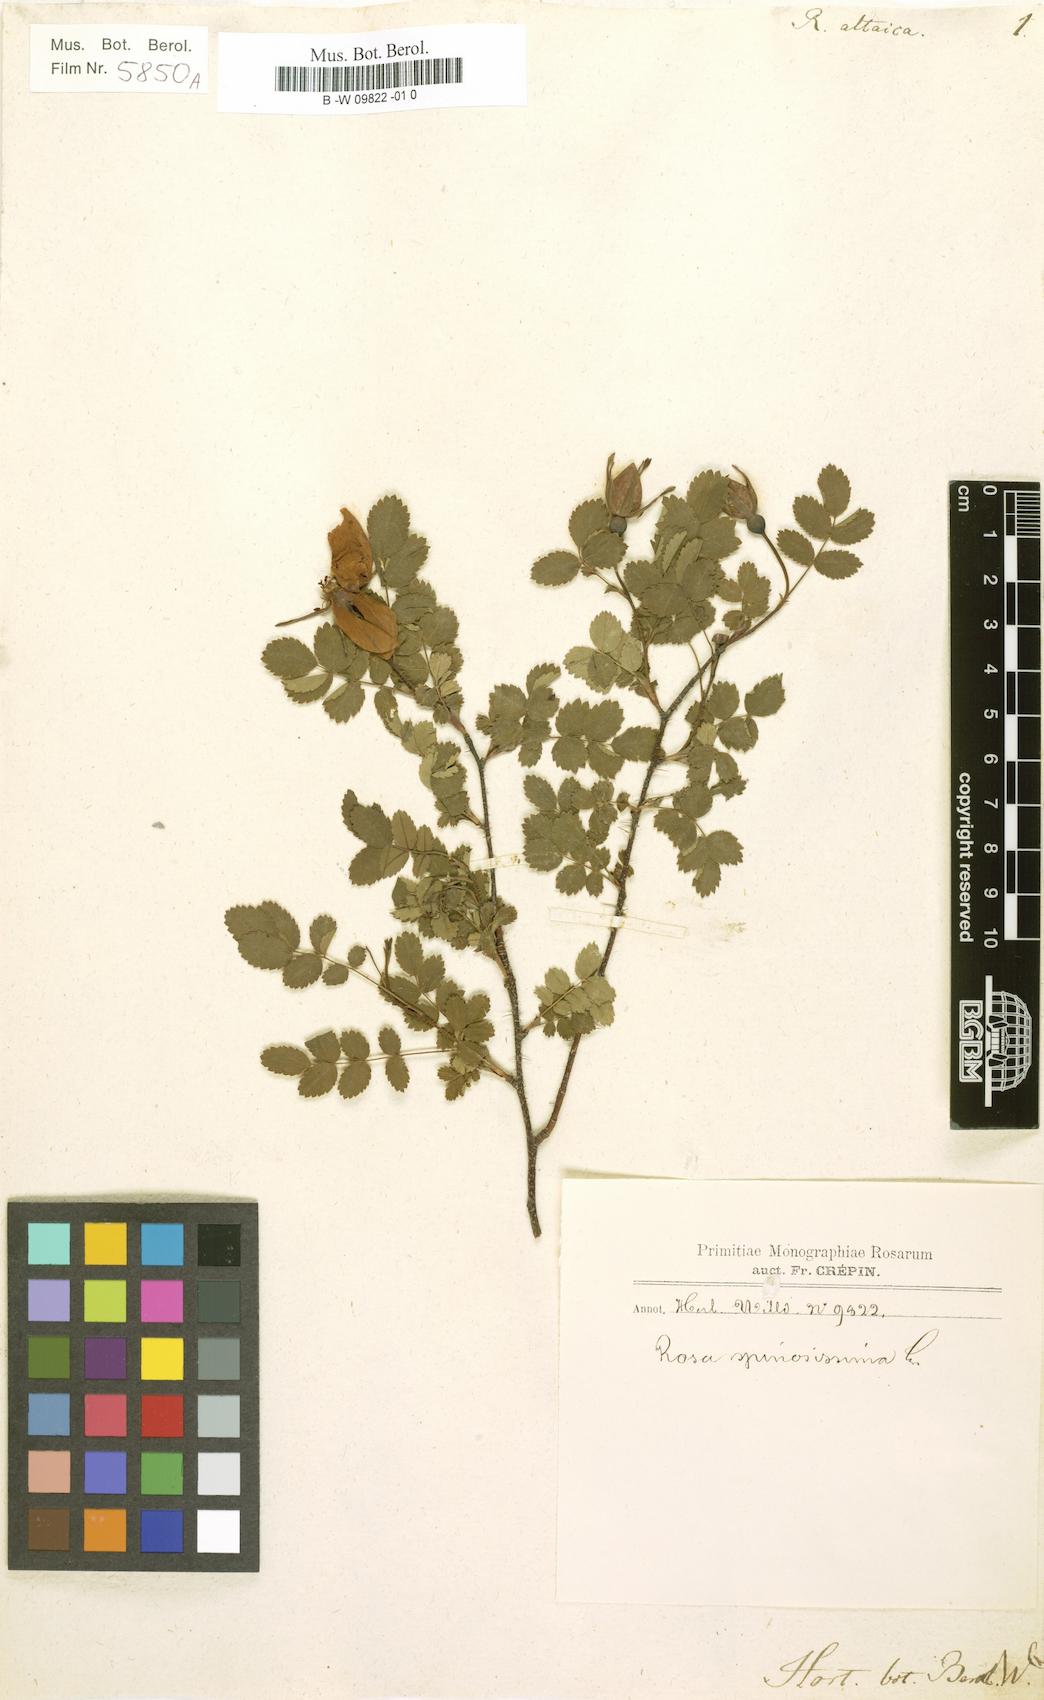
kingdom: Plantae
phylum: Tracheophyta
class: Magnoliopsida
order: Rosales
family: Rosaceae
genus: Rosa
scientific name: Rosa spinosissima
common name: Burnet rose
